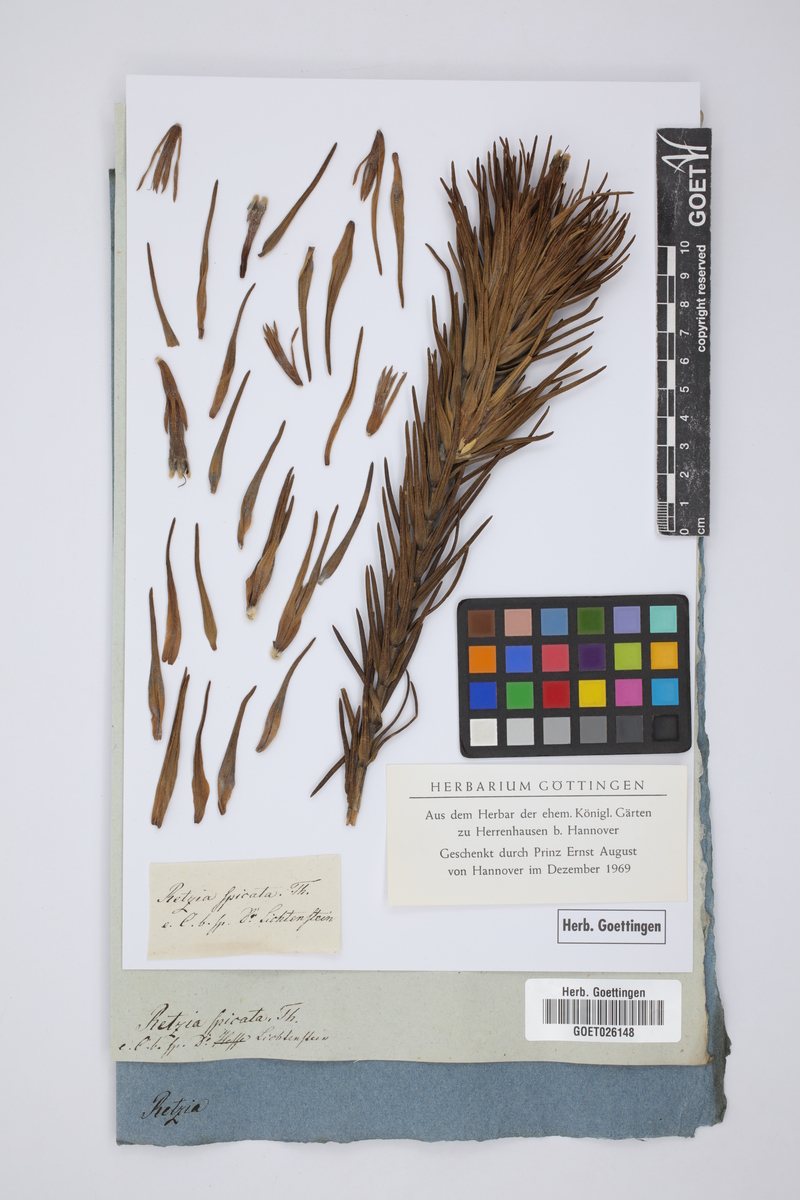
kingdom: Plantae
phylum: Tracheophyta
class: Magnoliopsida
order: Lamiales
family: Stilbaceae
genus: Retzia
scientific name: Retzia capensis
